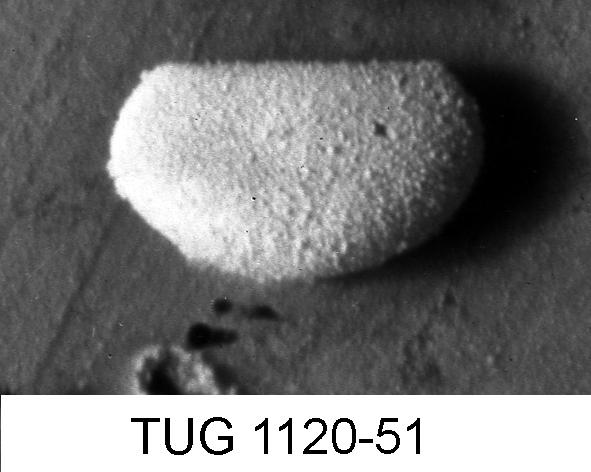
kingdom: Animalia
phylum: Arthropoda
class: Ostracoda
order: Platycopida
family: Primitiidae
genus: Primitiella
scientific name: Primitiella
